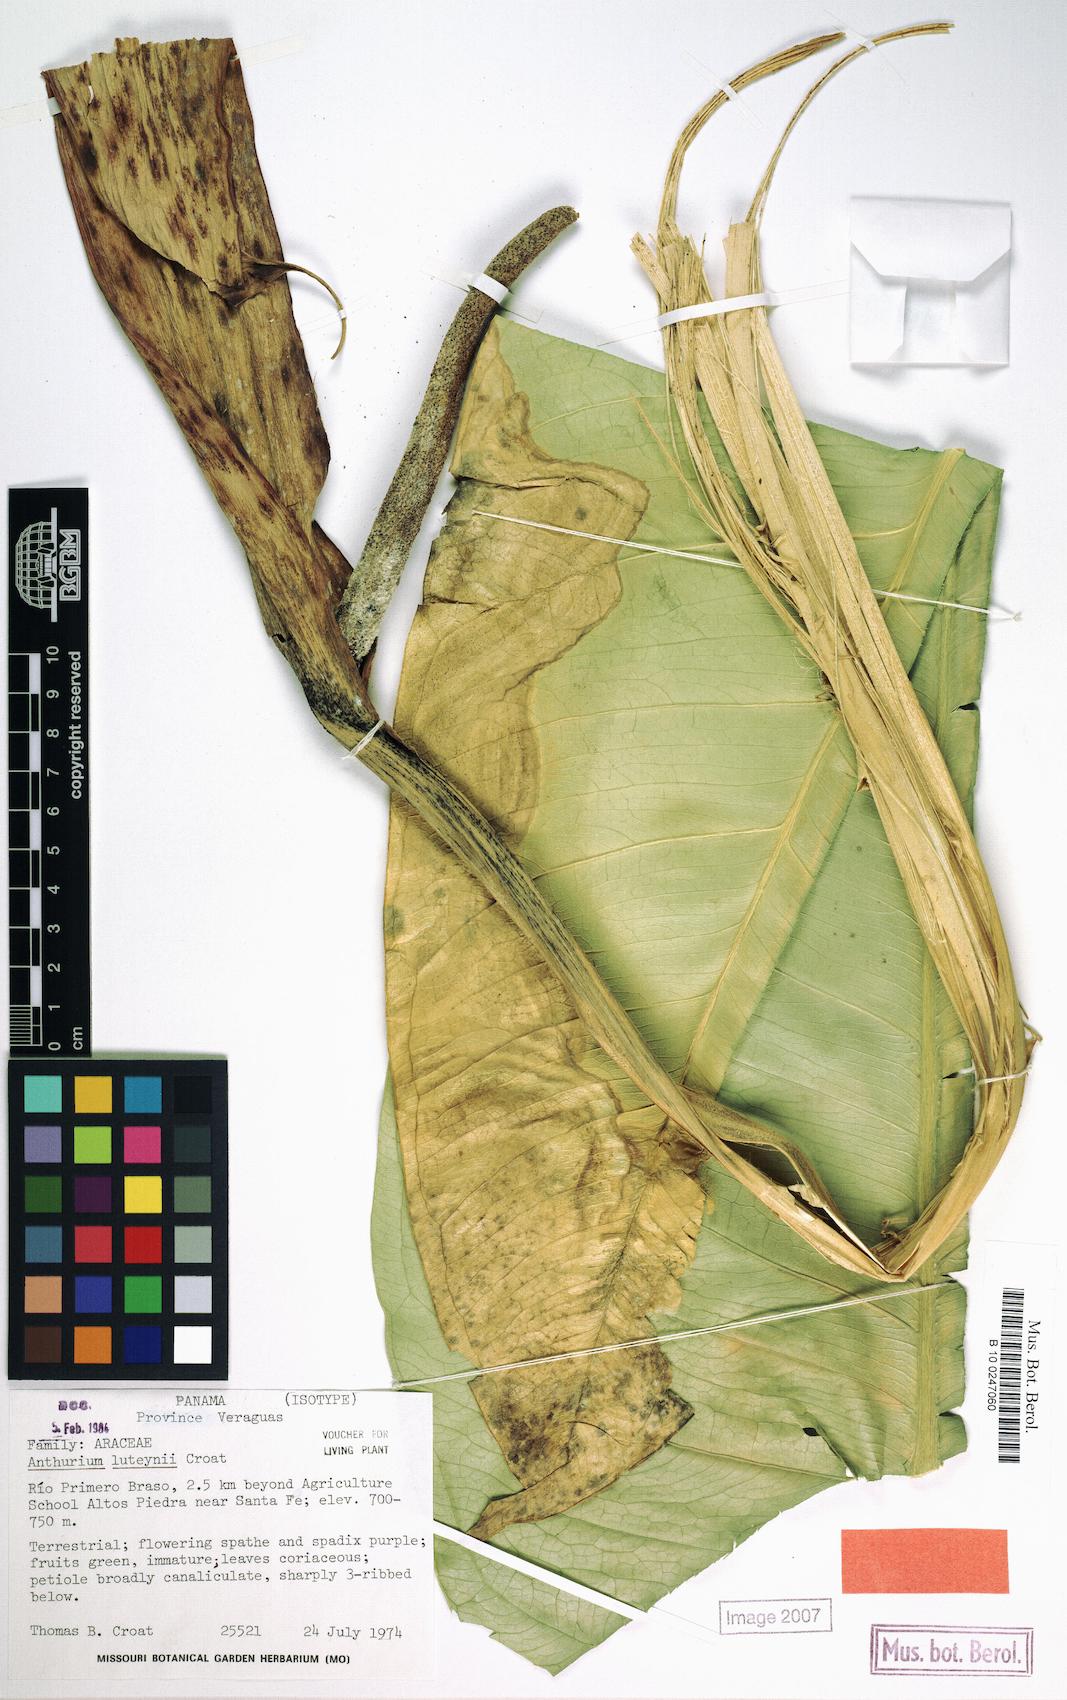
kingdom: Plantae
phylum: Tracheophyta
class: Liliopsida
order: Alismatales
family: Araceae
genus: Anthurium
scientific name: Anthurium luteynii
